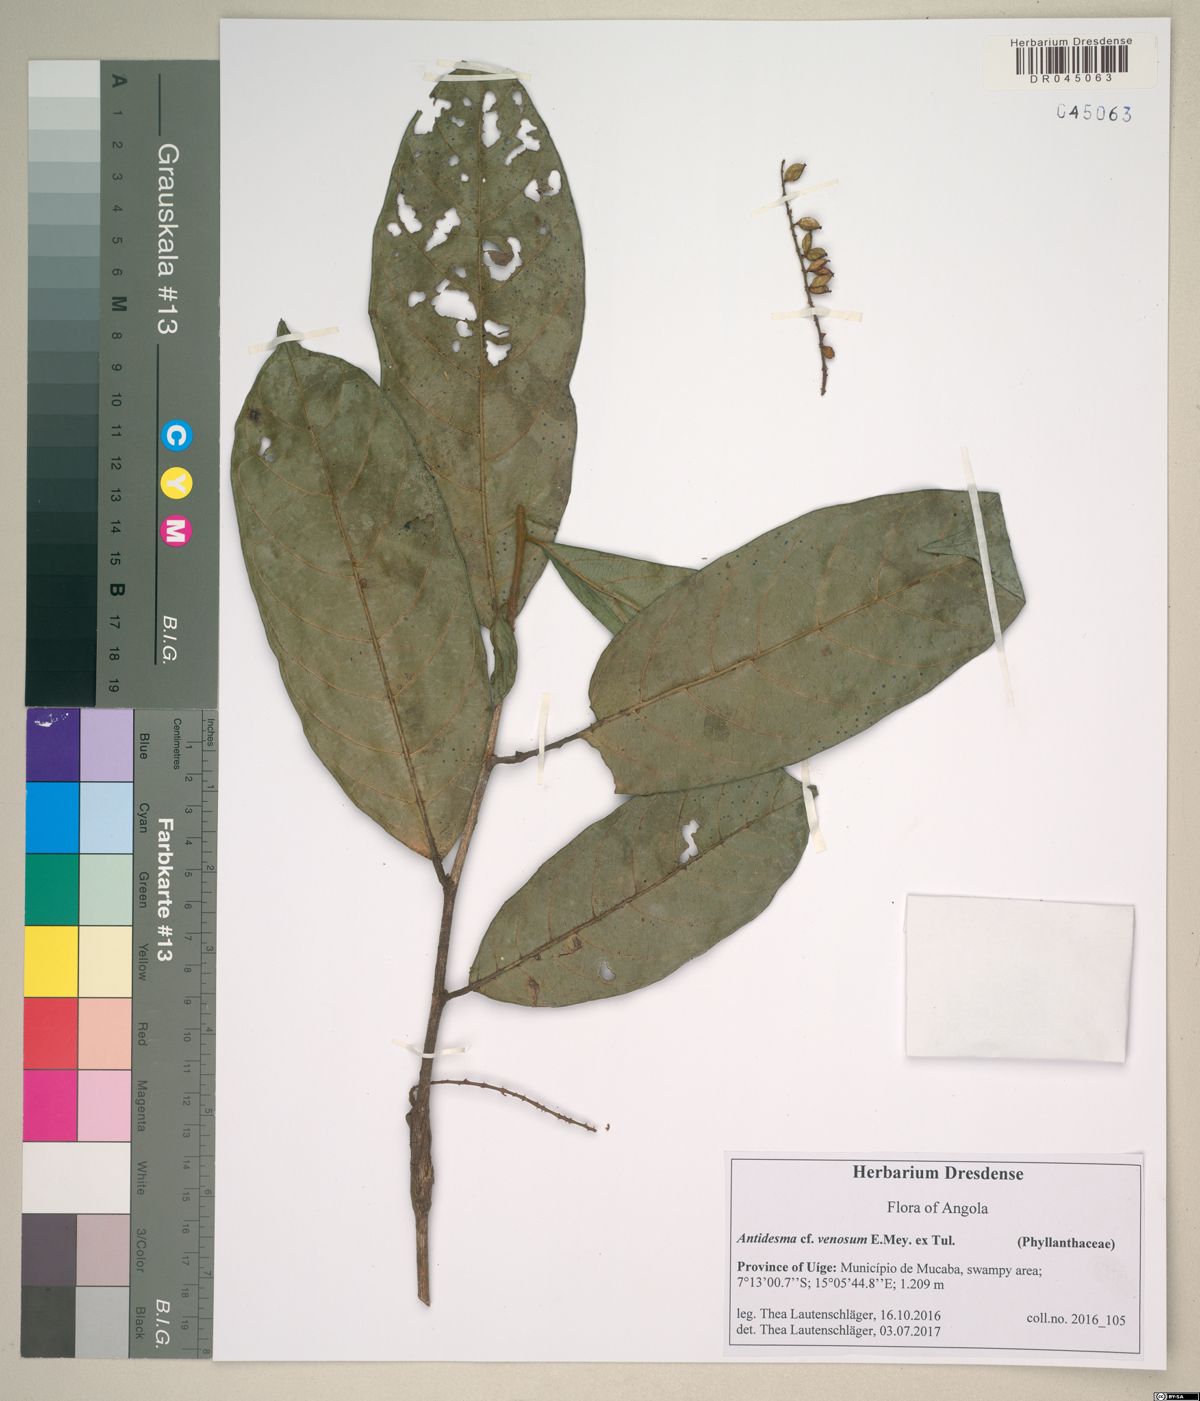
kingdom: Plantae
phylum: Tracheophyta
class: Magnoliopsida
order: Malpighiales
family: Phyllanthaceae
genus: Antidesma
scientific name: Antidesma venosum
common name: Tassel-berry
